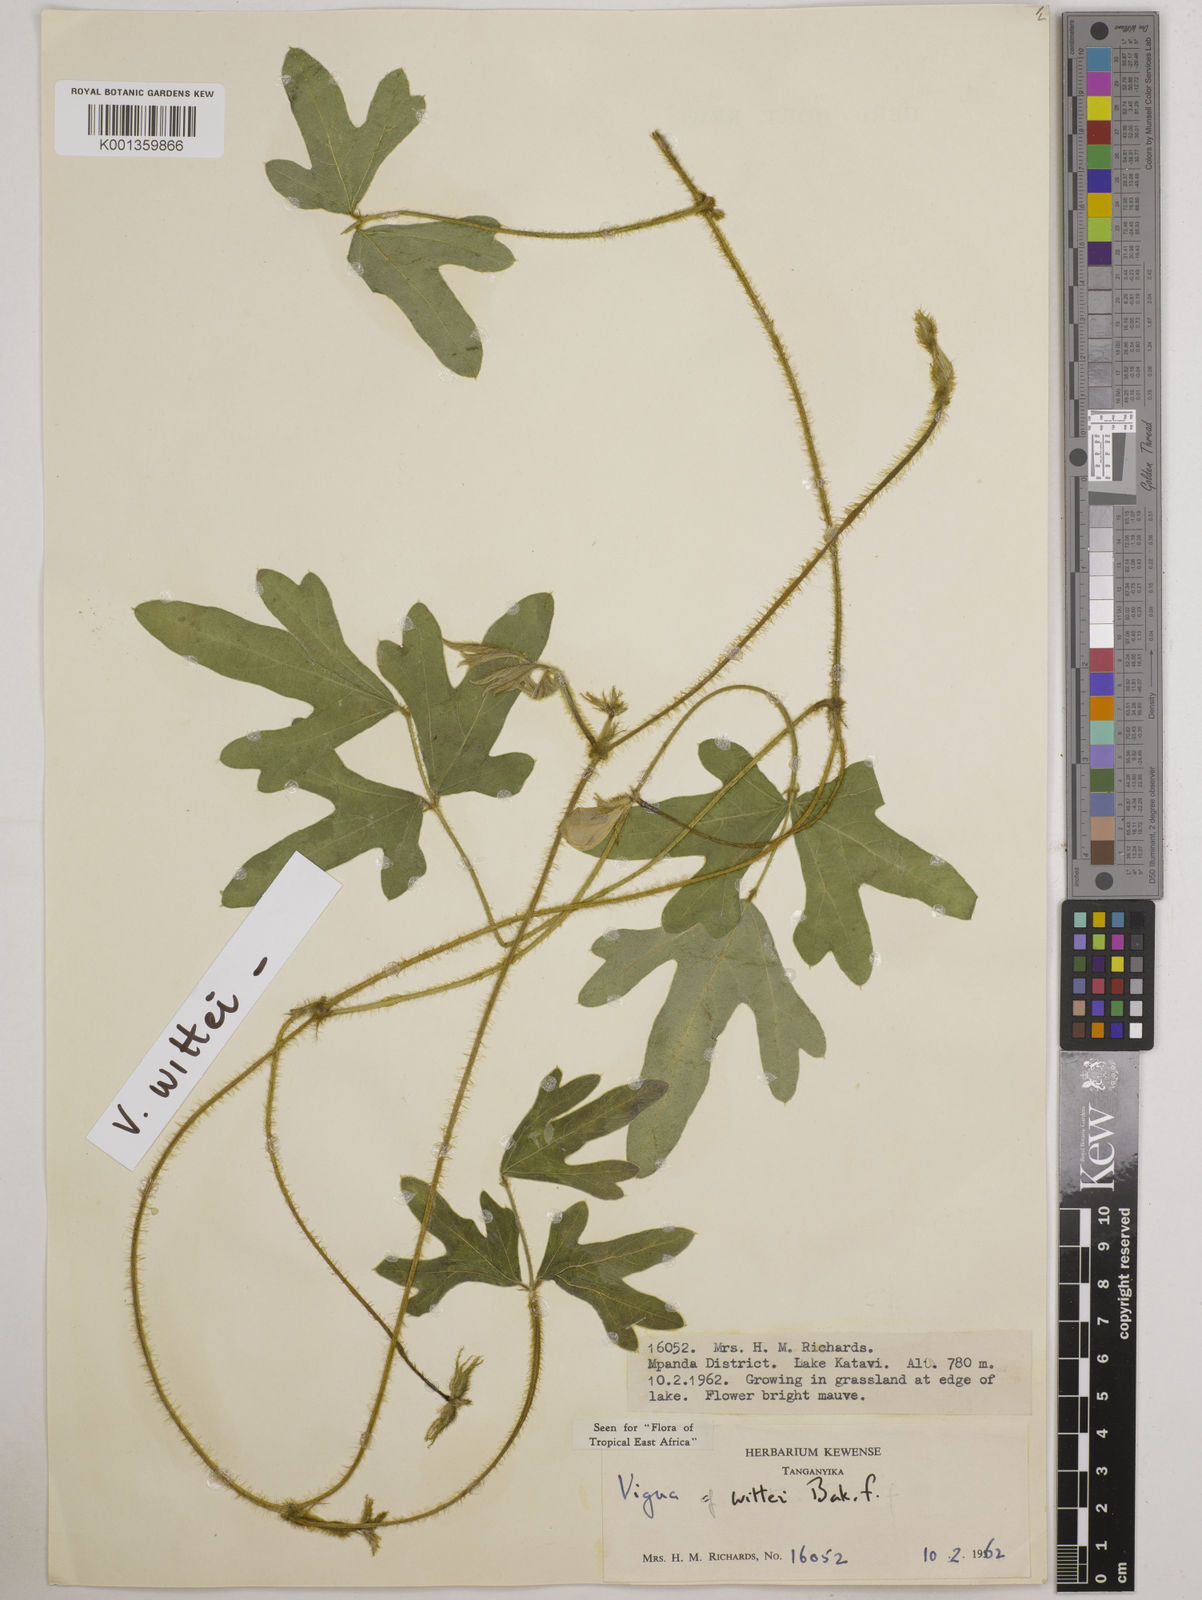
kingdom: Plantae
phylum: Tracheophyta
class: Magnoliopsida
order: Fabales
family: Fabaceae
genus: Vigna
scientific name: Vigna wittei
